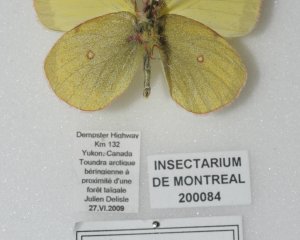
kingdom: Animalia
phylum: Arthropoda
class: Insecta
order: Lepidoptera
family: Pieridae
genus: Colias
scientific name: Colias pelidne
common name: Pelidne Sulphur
